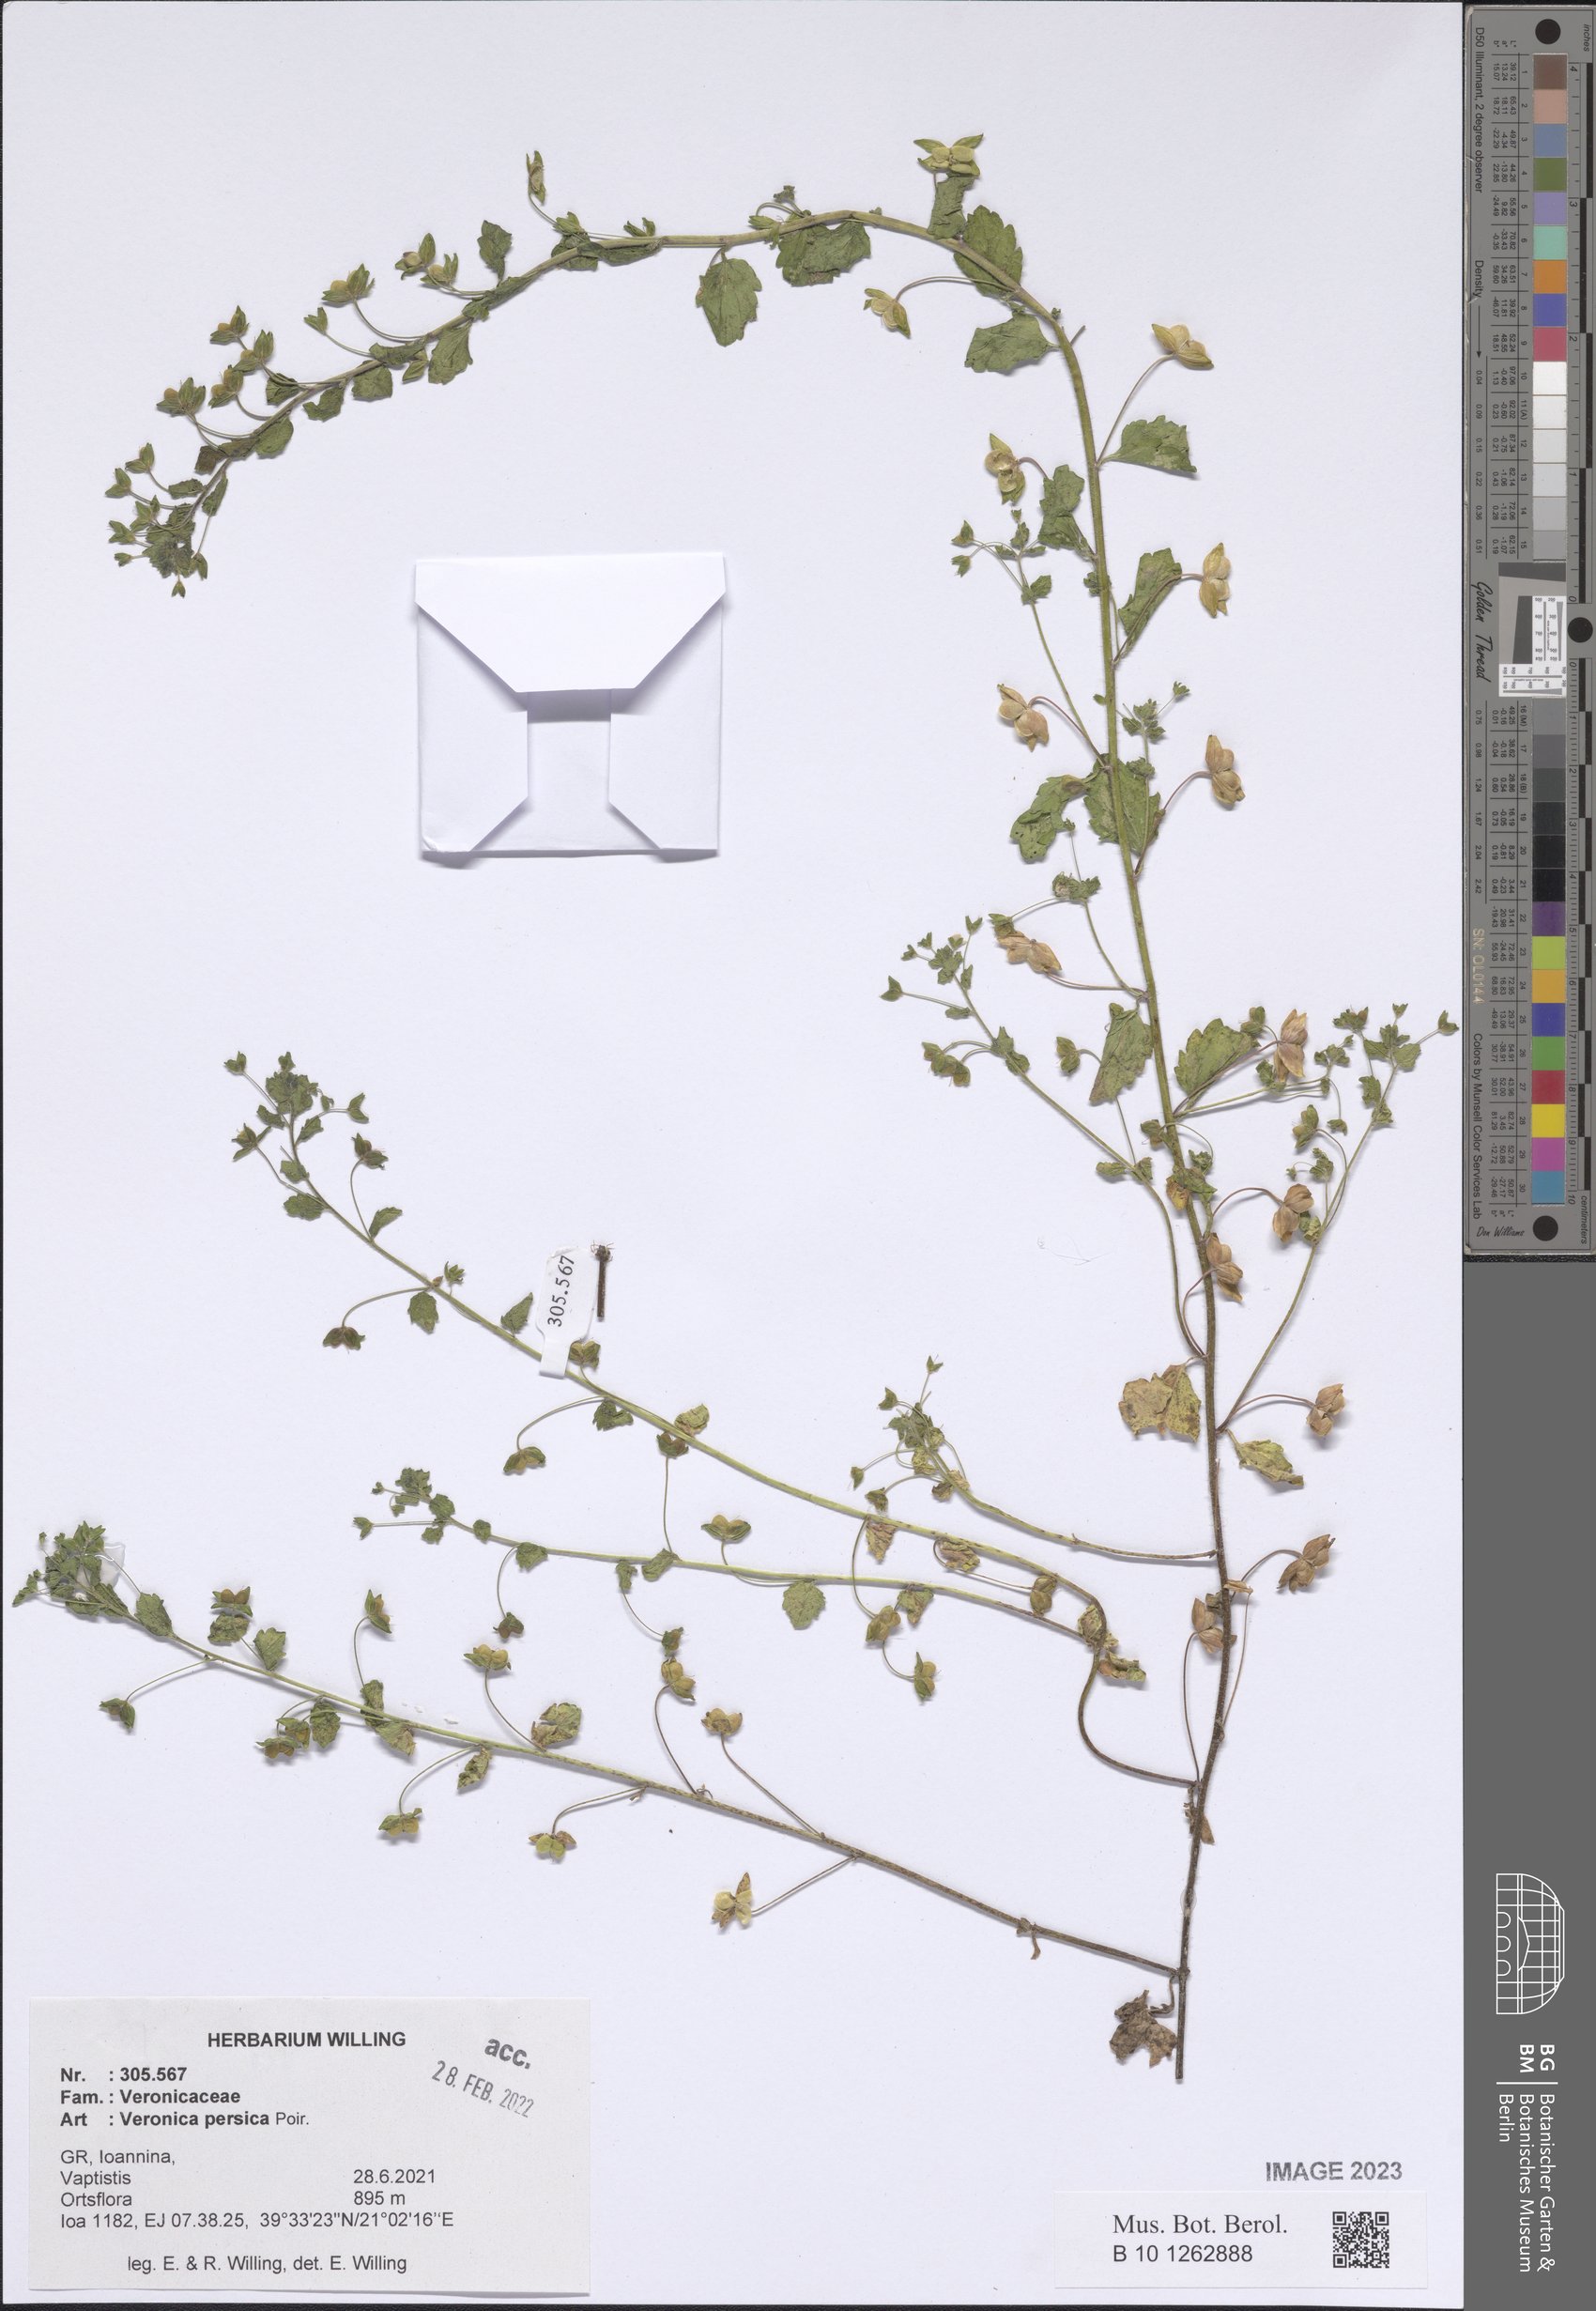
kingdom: Plantae
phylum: Tracheophyta
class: Magnoliopsida
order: Lamiales
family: Plantaginaceae
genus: Veronica
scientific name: Veronica persica
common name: Common field-speedwell
